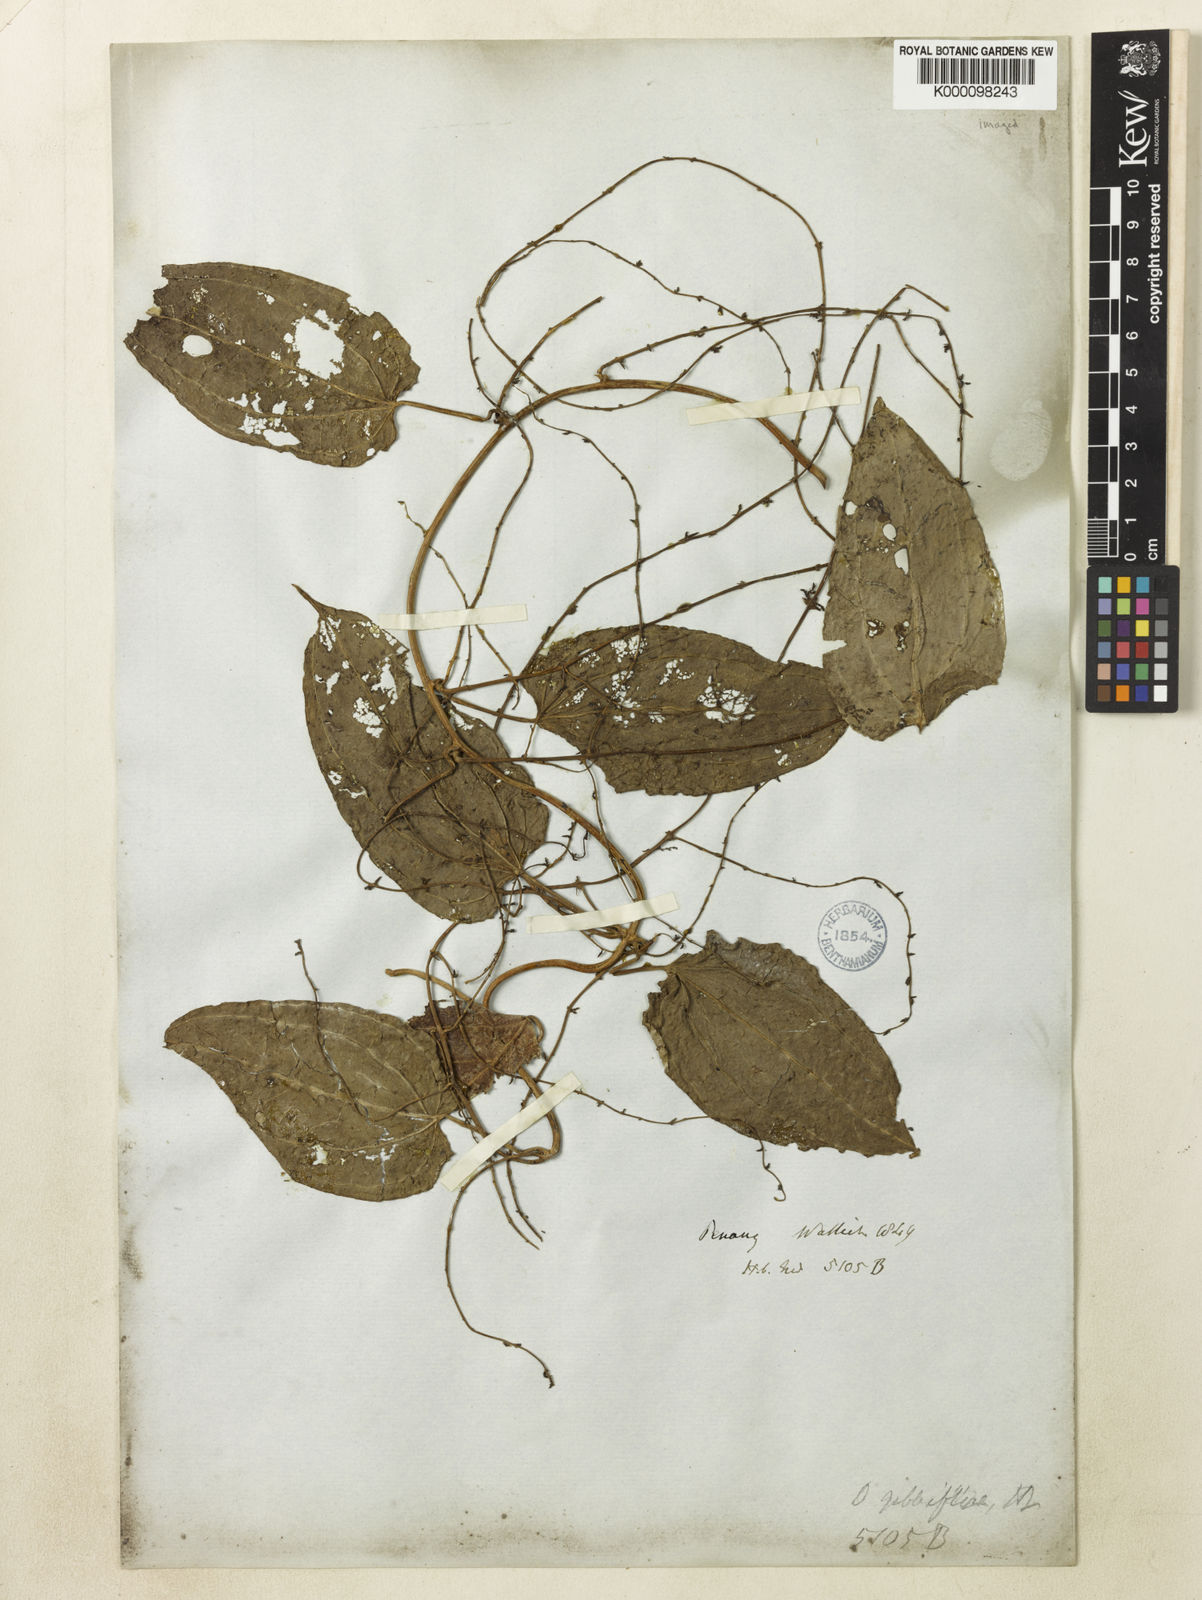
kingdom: Plantae
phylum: Tracheophyta
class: Liliopsida
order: Dioscoreales
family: Dioscoreaceae
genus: Dioscorea
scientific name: Dioscorea filiformis
